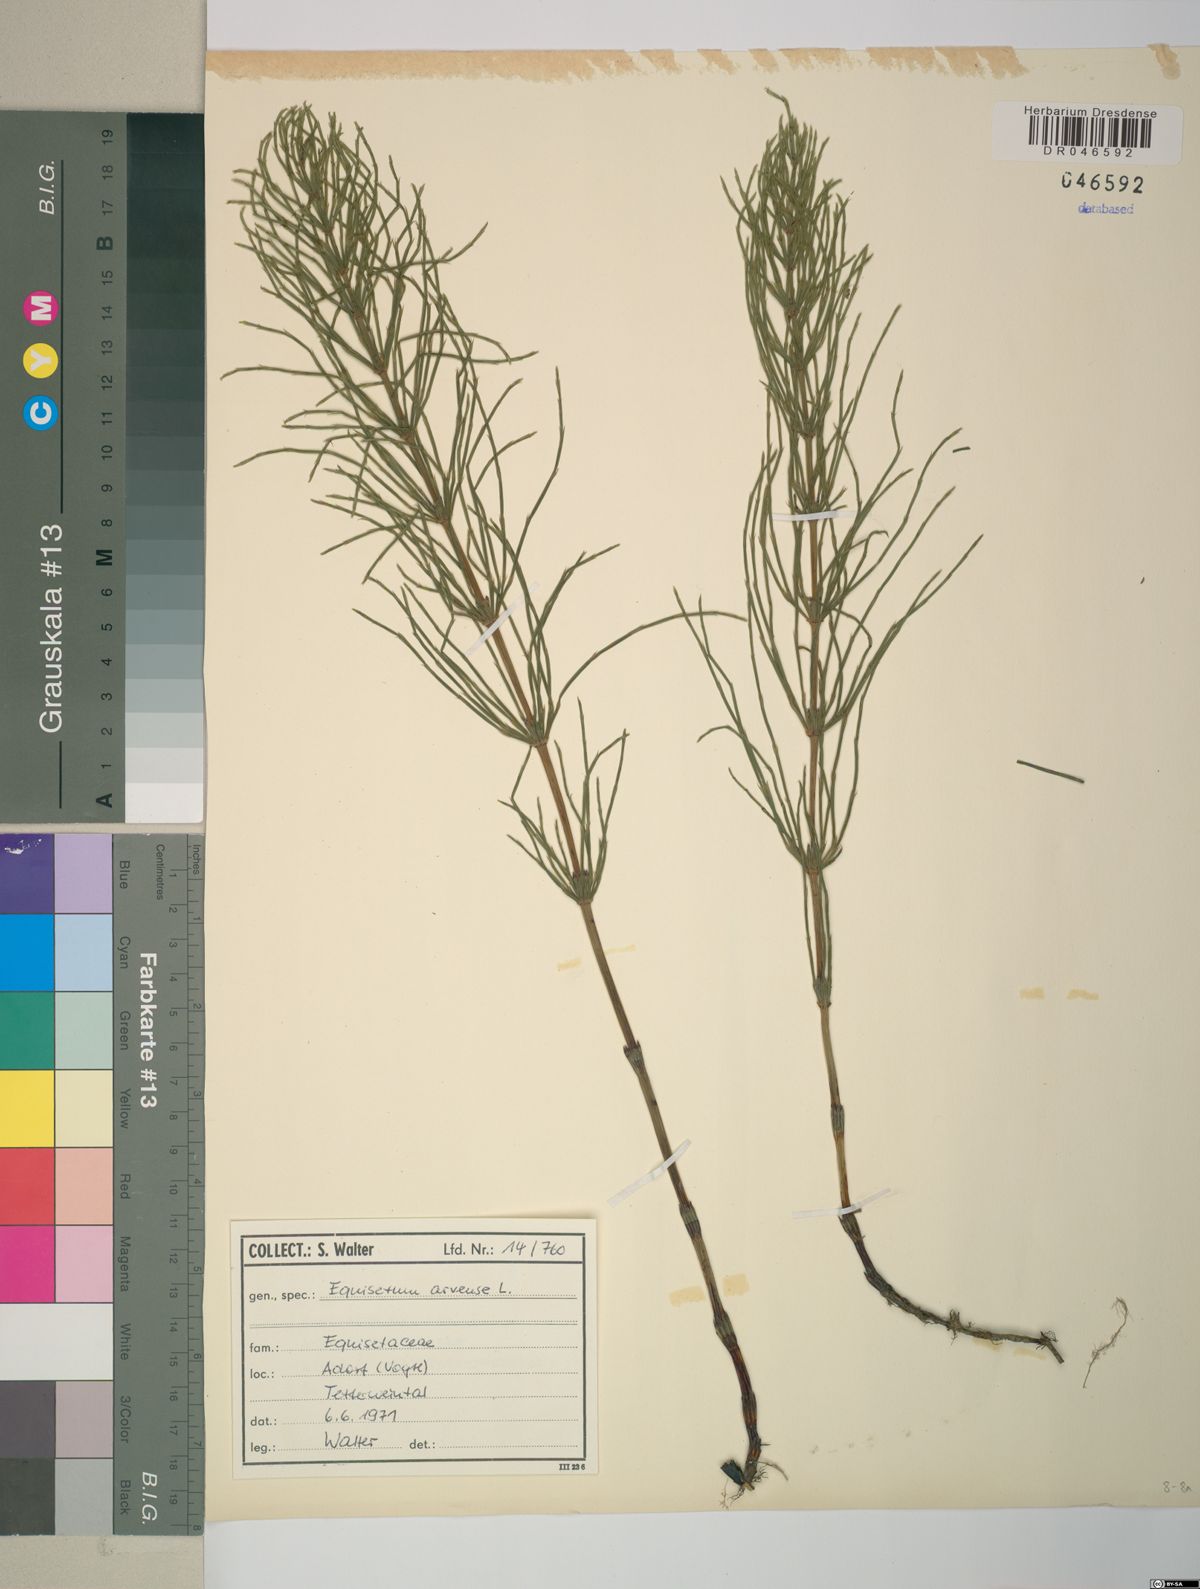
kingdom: Plantae
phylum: Tracheophyta
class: Polypodiopsida
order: Equisetales
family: Equisetaceae
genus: Equisetum
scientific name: Equisetum arvense
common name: Field horsetail
